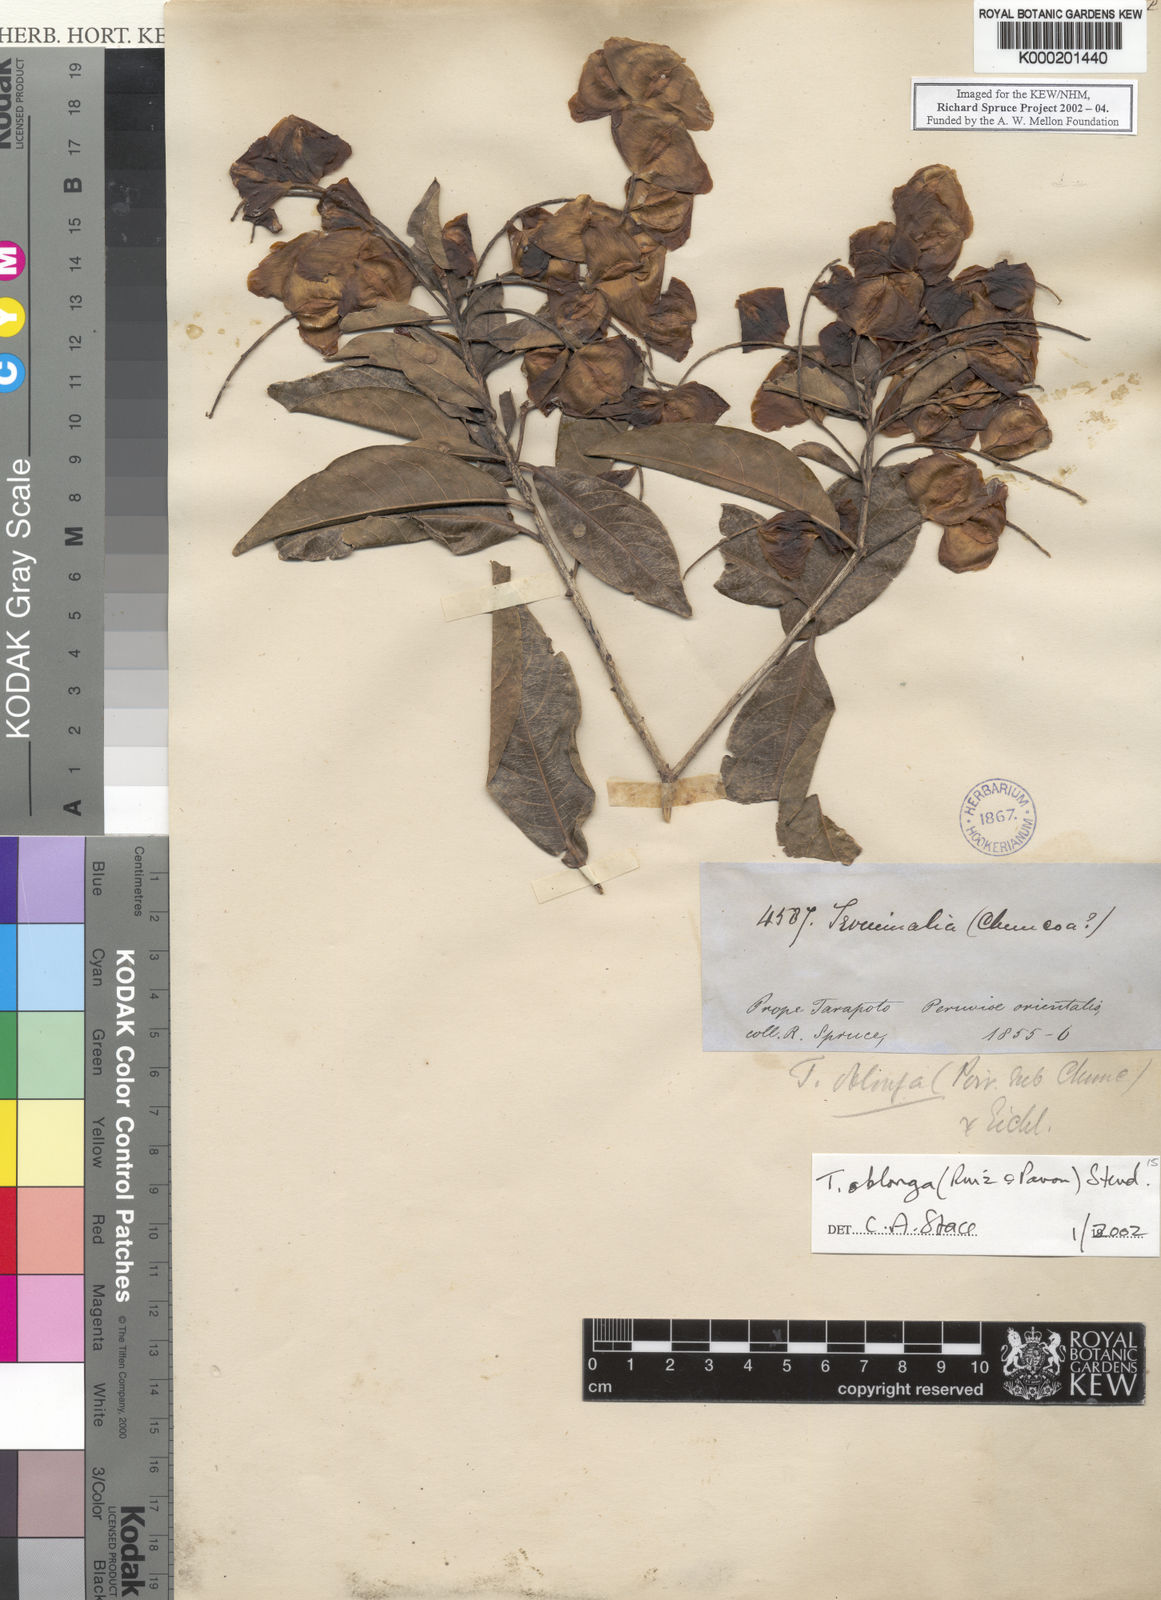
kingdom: Plantae
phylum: Tracheophyta
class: Magnoliopsida
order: Myrtales
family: Combretaceae
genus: Terminalia
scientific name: Terminalia oblonga
